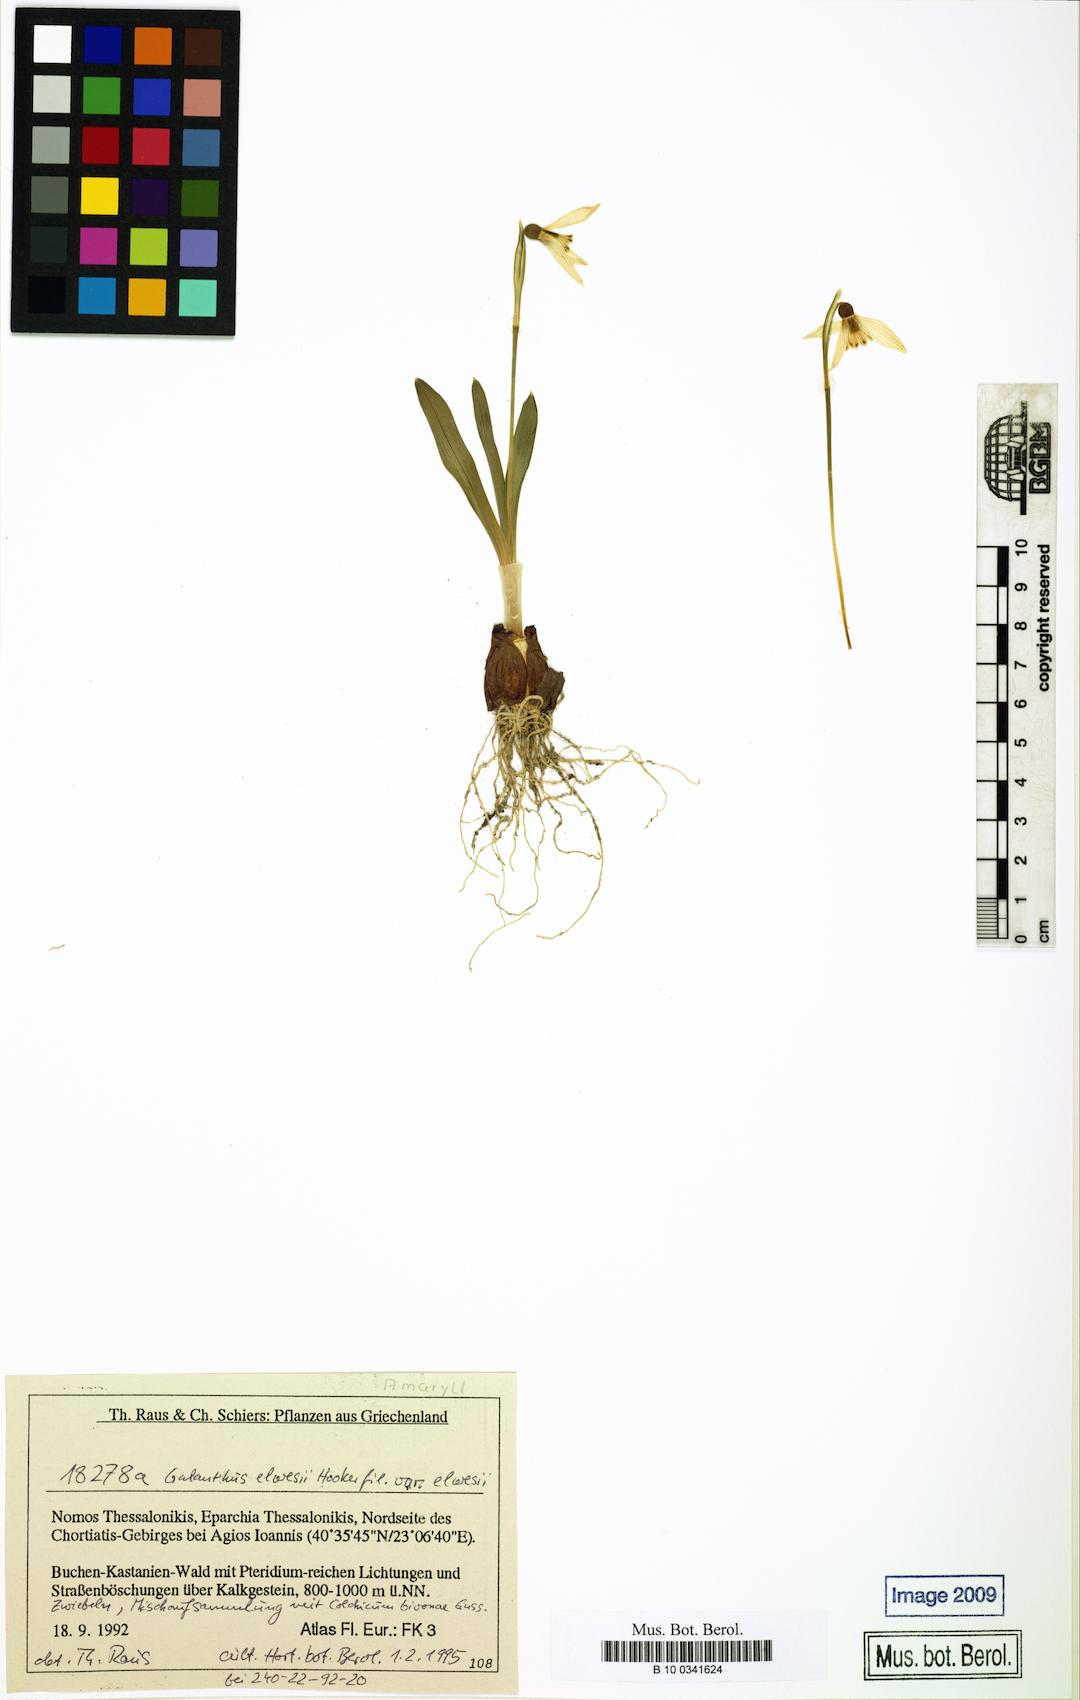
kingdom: Plantae
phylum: Tracheophyta
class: Liliopsida
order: Asparagales
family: Amaryllidaceae
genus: Galanthus
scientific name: Galanthus elwesii
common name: Greater snowdrop
